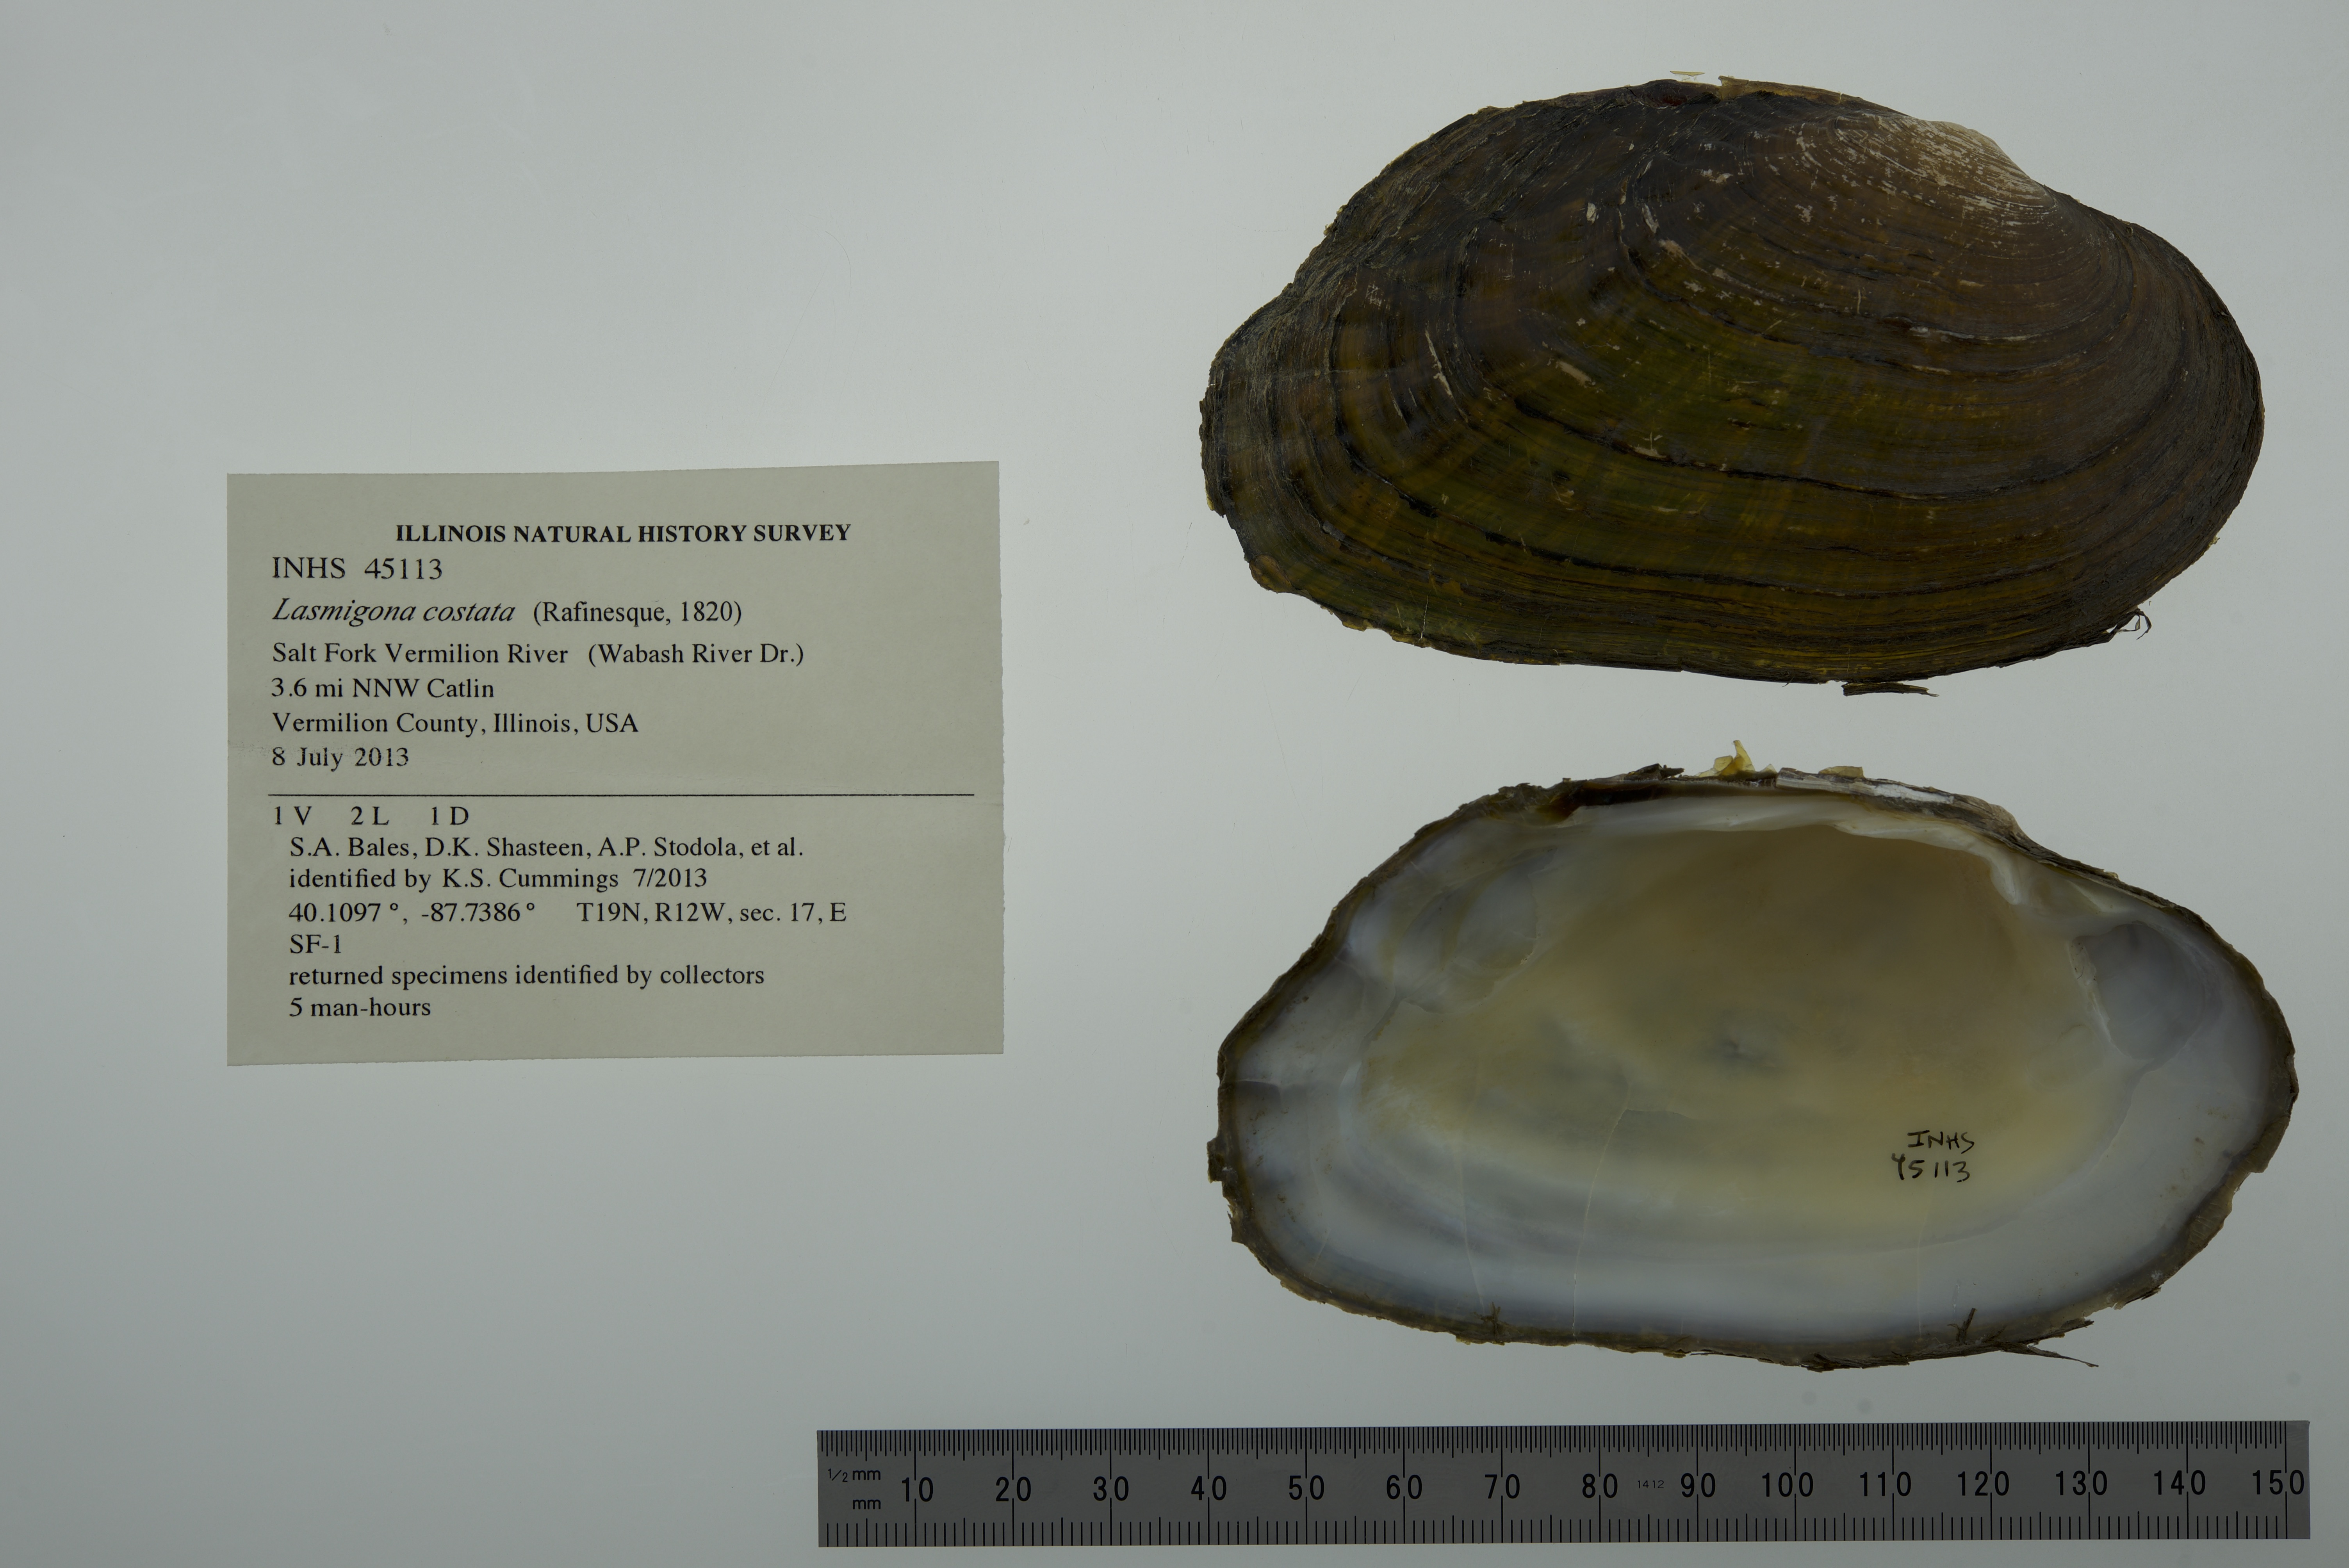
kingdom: Animalia
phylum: Mollusca
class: Bivalvia
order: Unionida
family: Unionidae
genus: Lasmigona
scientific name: Lasmigona costata
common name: Flutedshell
